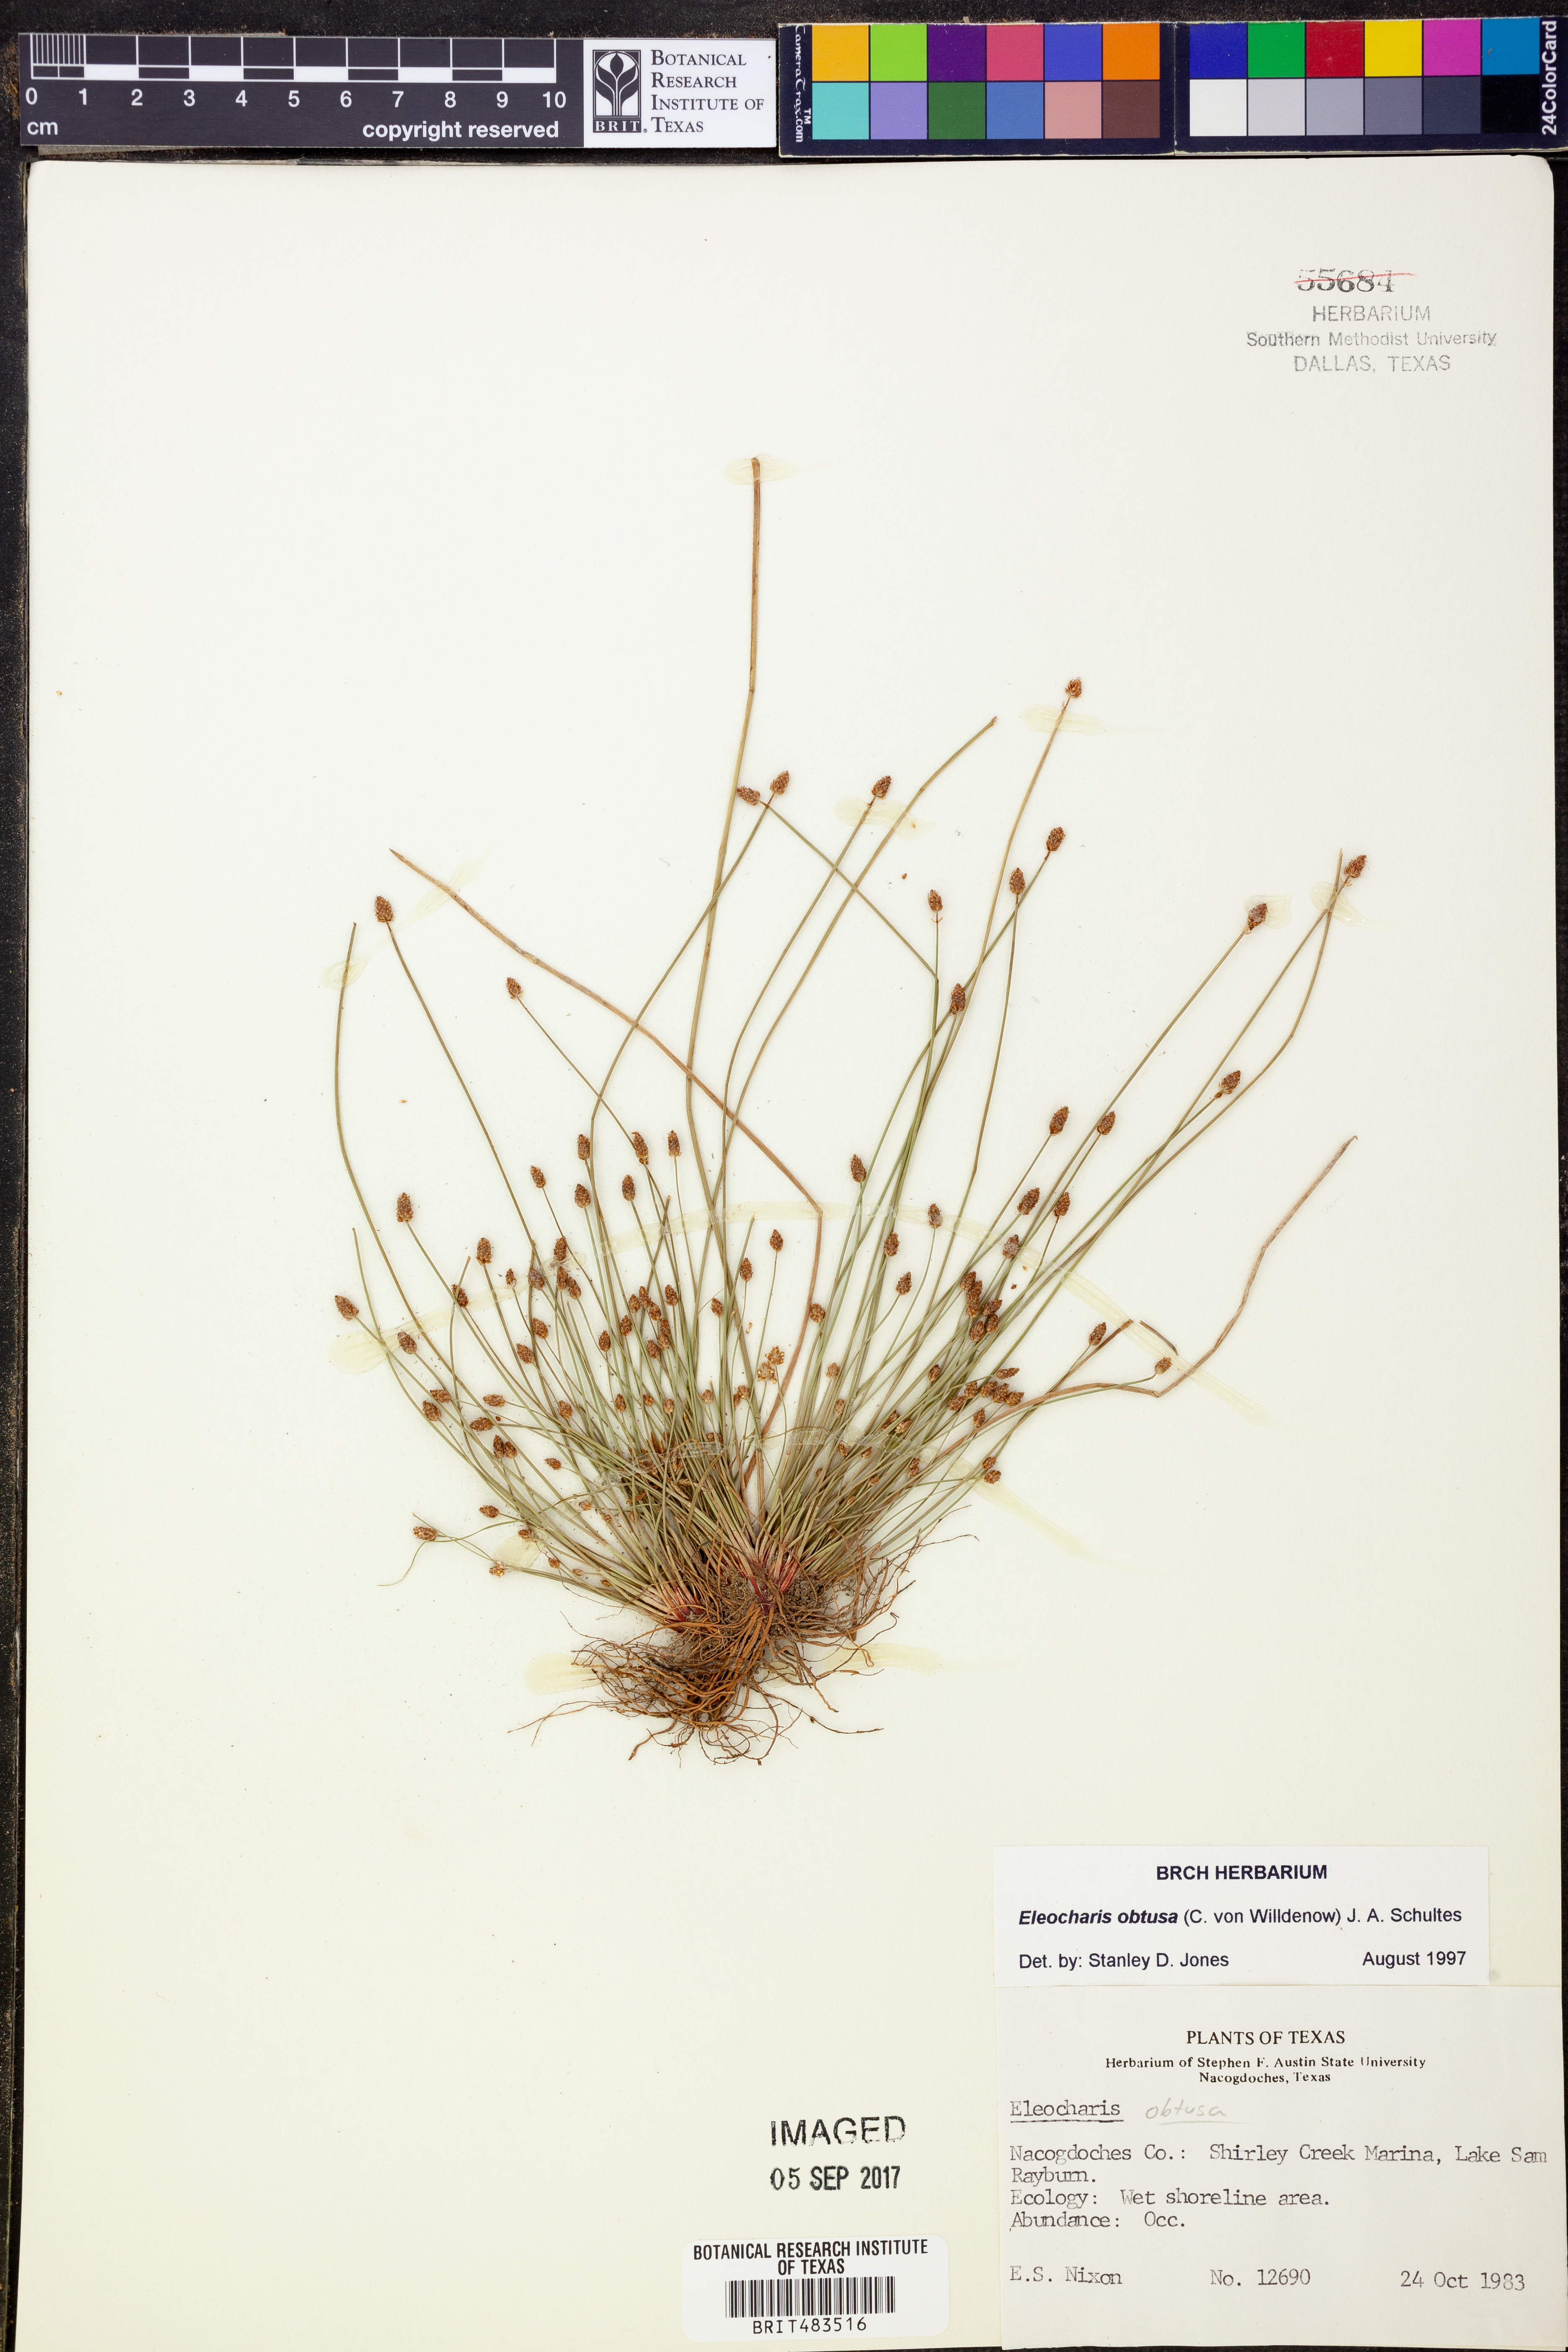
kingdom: Plantae
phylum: Tracheophyta
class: Liliopsida
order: Poales
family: Cyperaceae
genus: Eleocharis
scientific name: Eleocharis obtusa
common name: Blunt spikerush
